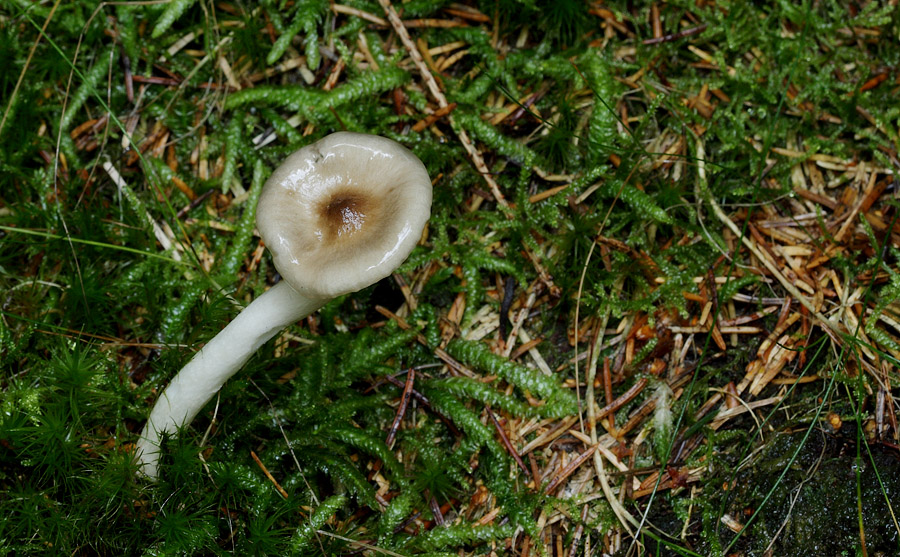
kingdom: Fungi
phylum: Basidiomycota
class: Agaricomycetes
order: Agaricales
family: Hygrophoraceae
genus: Hygrophorus
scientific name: Hygrophorus olivaceoalbus
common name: hvidbrun sneglehat
